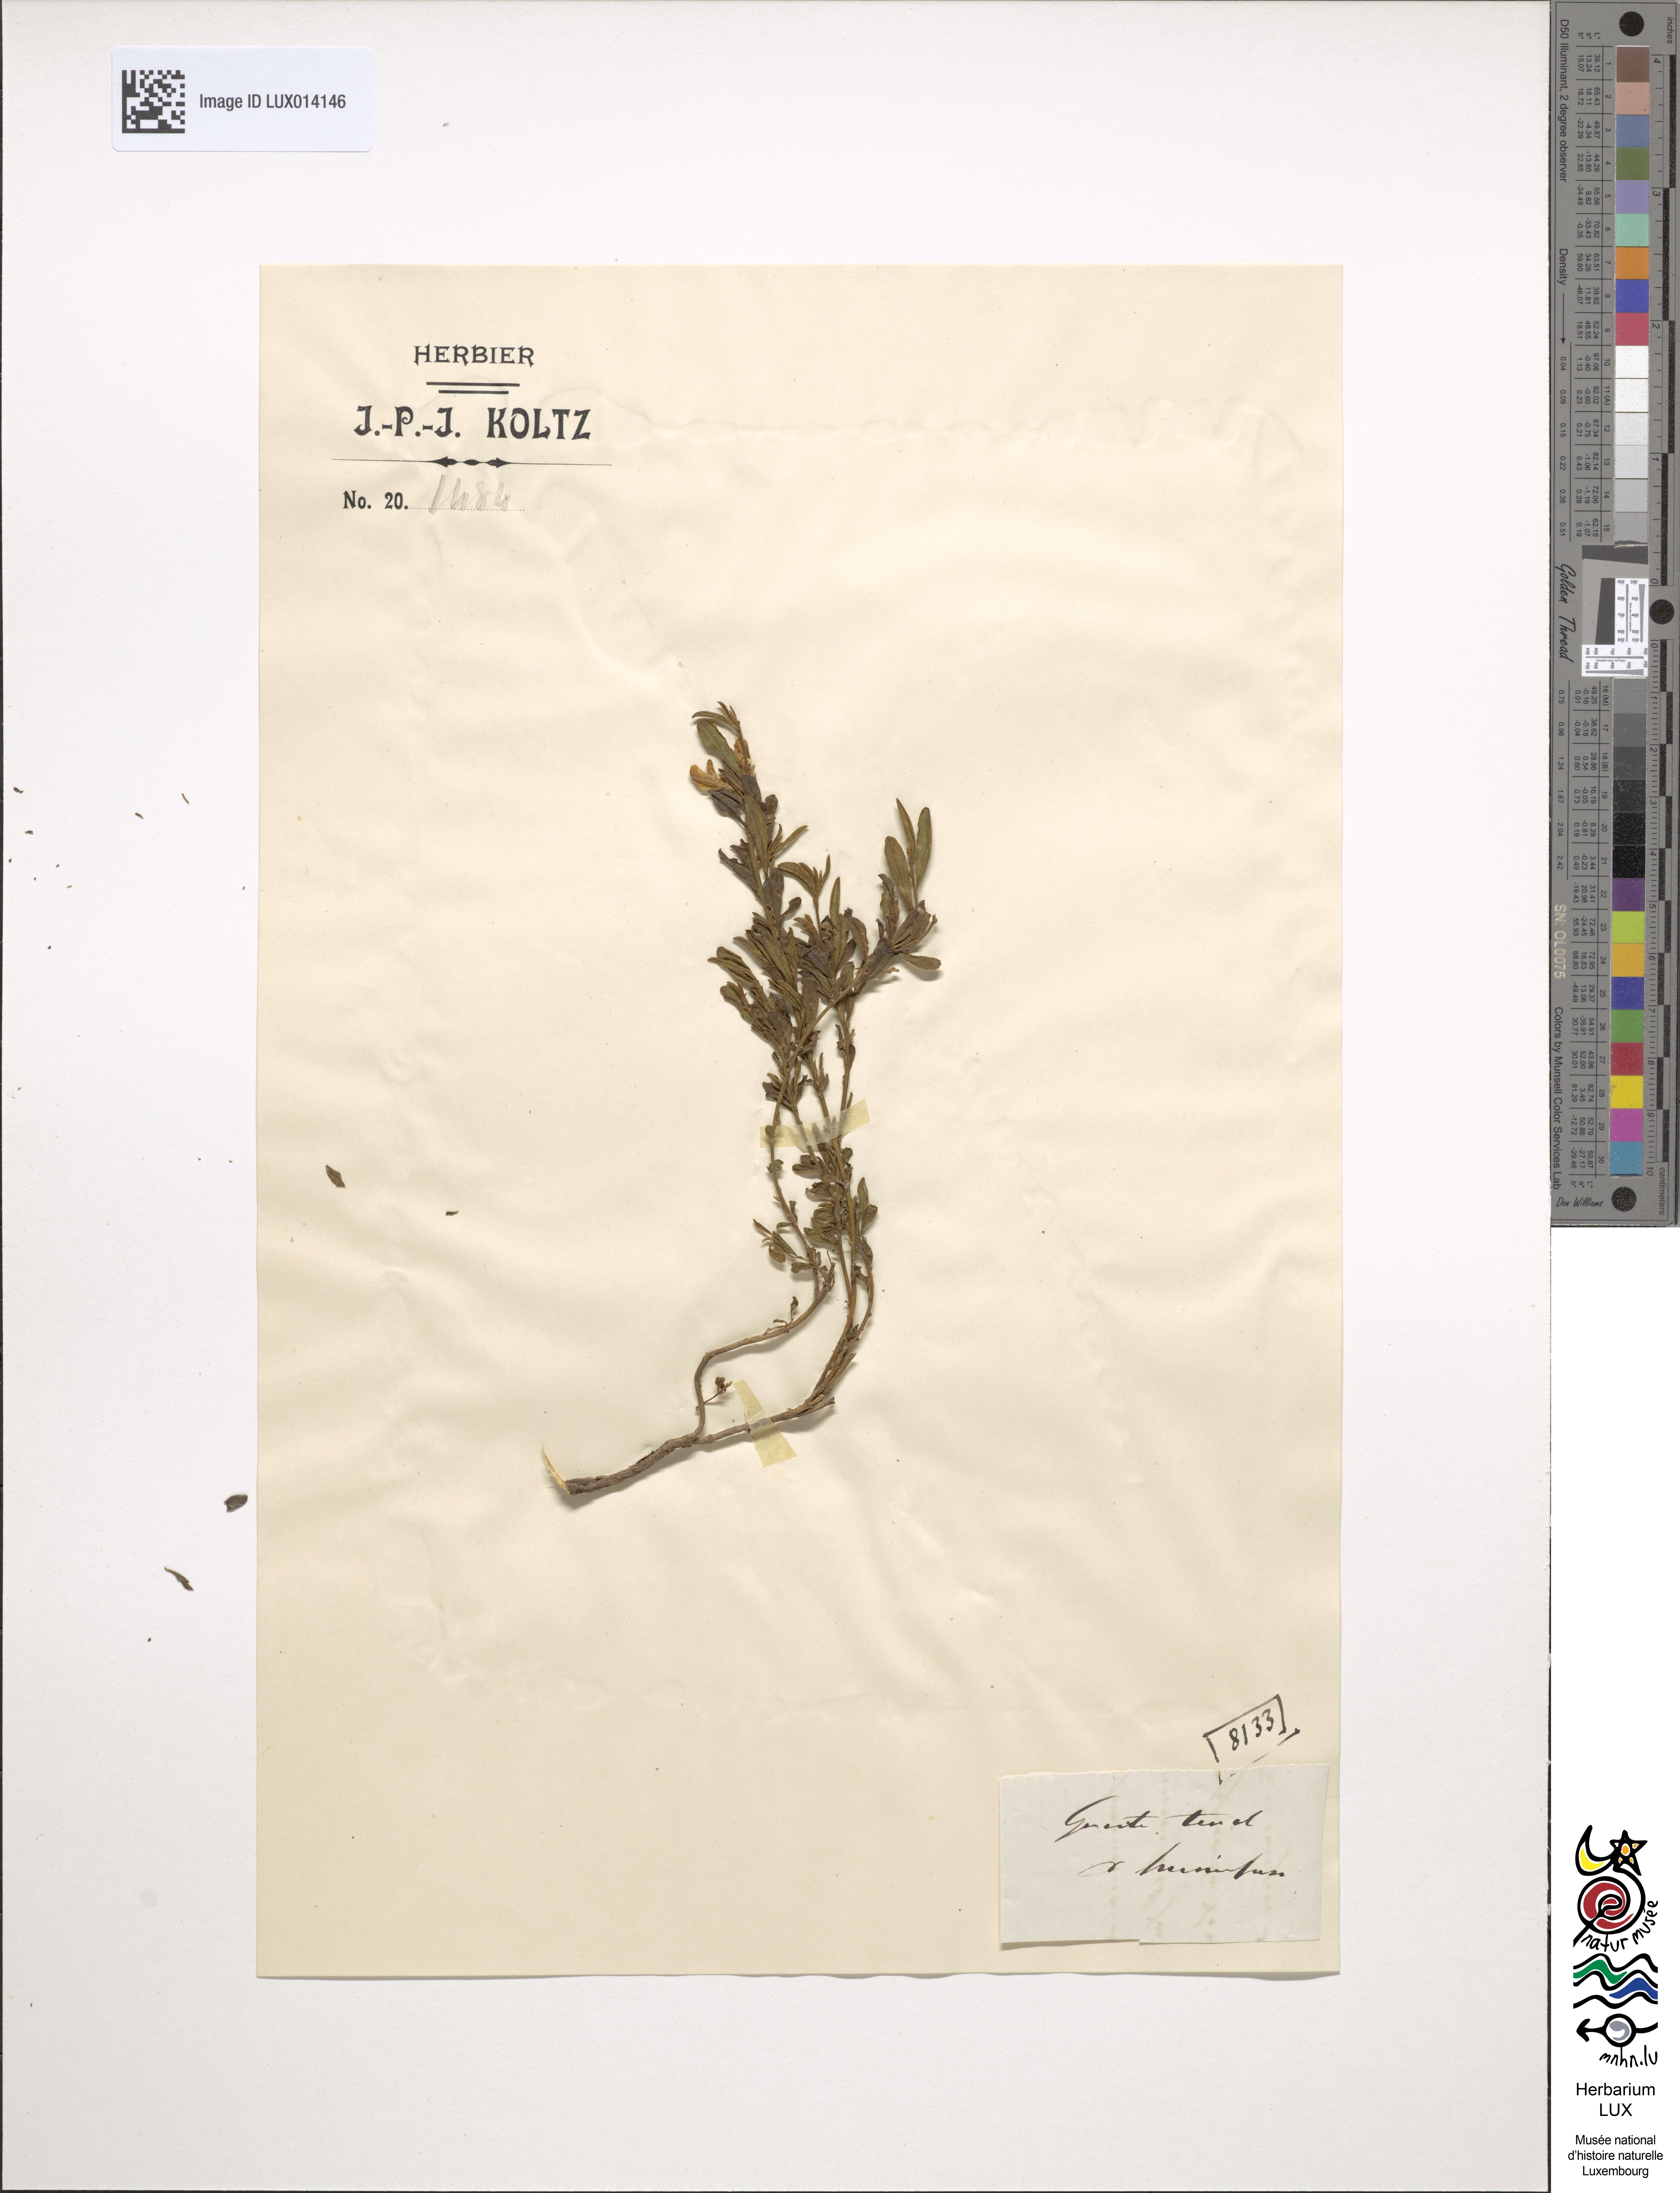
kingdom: Plantae
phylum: Tracheophyta
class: Magnoliopsida
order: Fabales
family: Fabaceae
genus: Genista
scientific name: Genista pilosa
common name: Hairy greenweed
